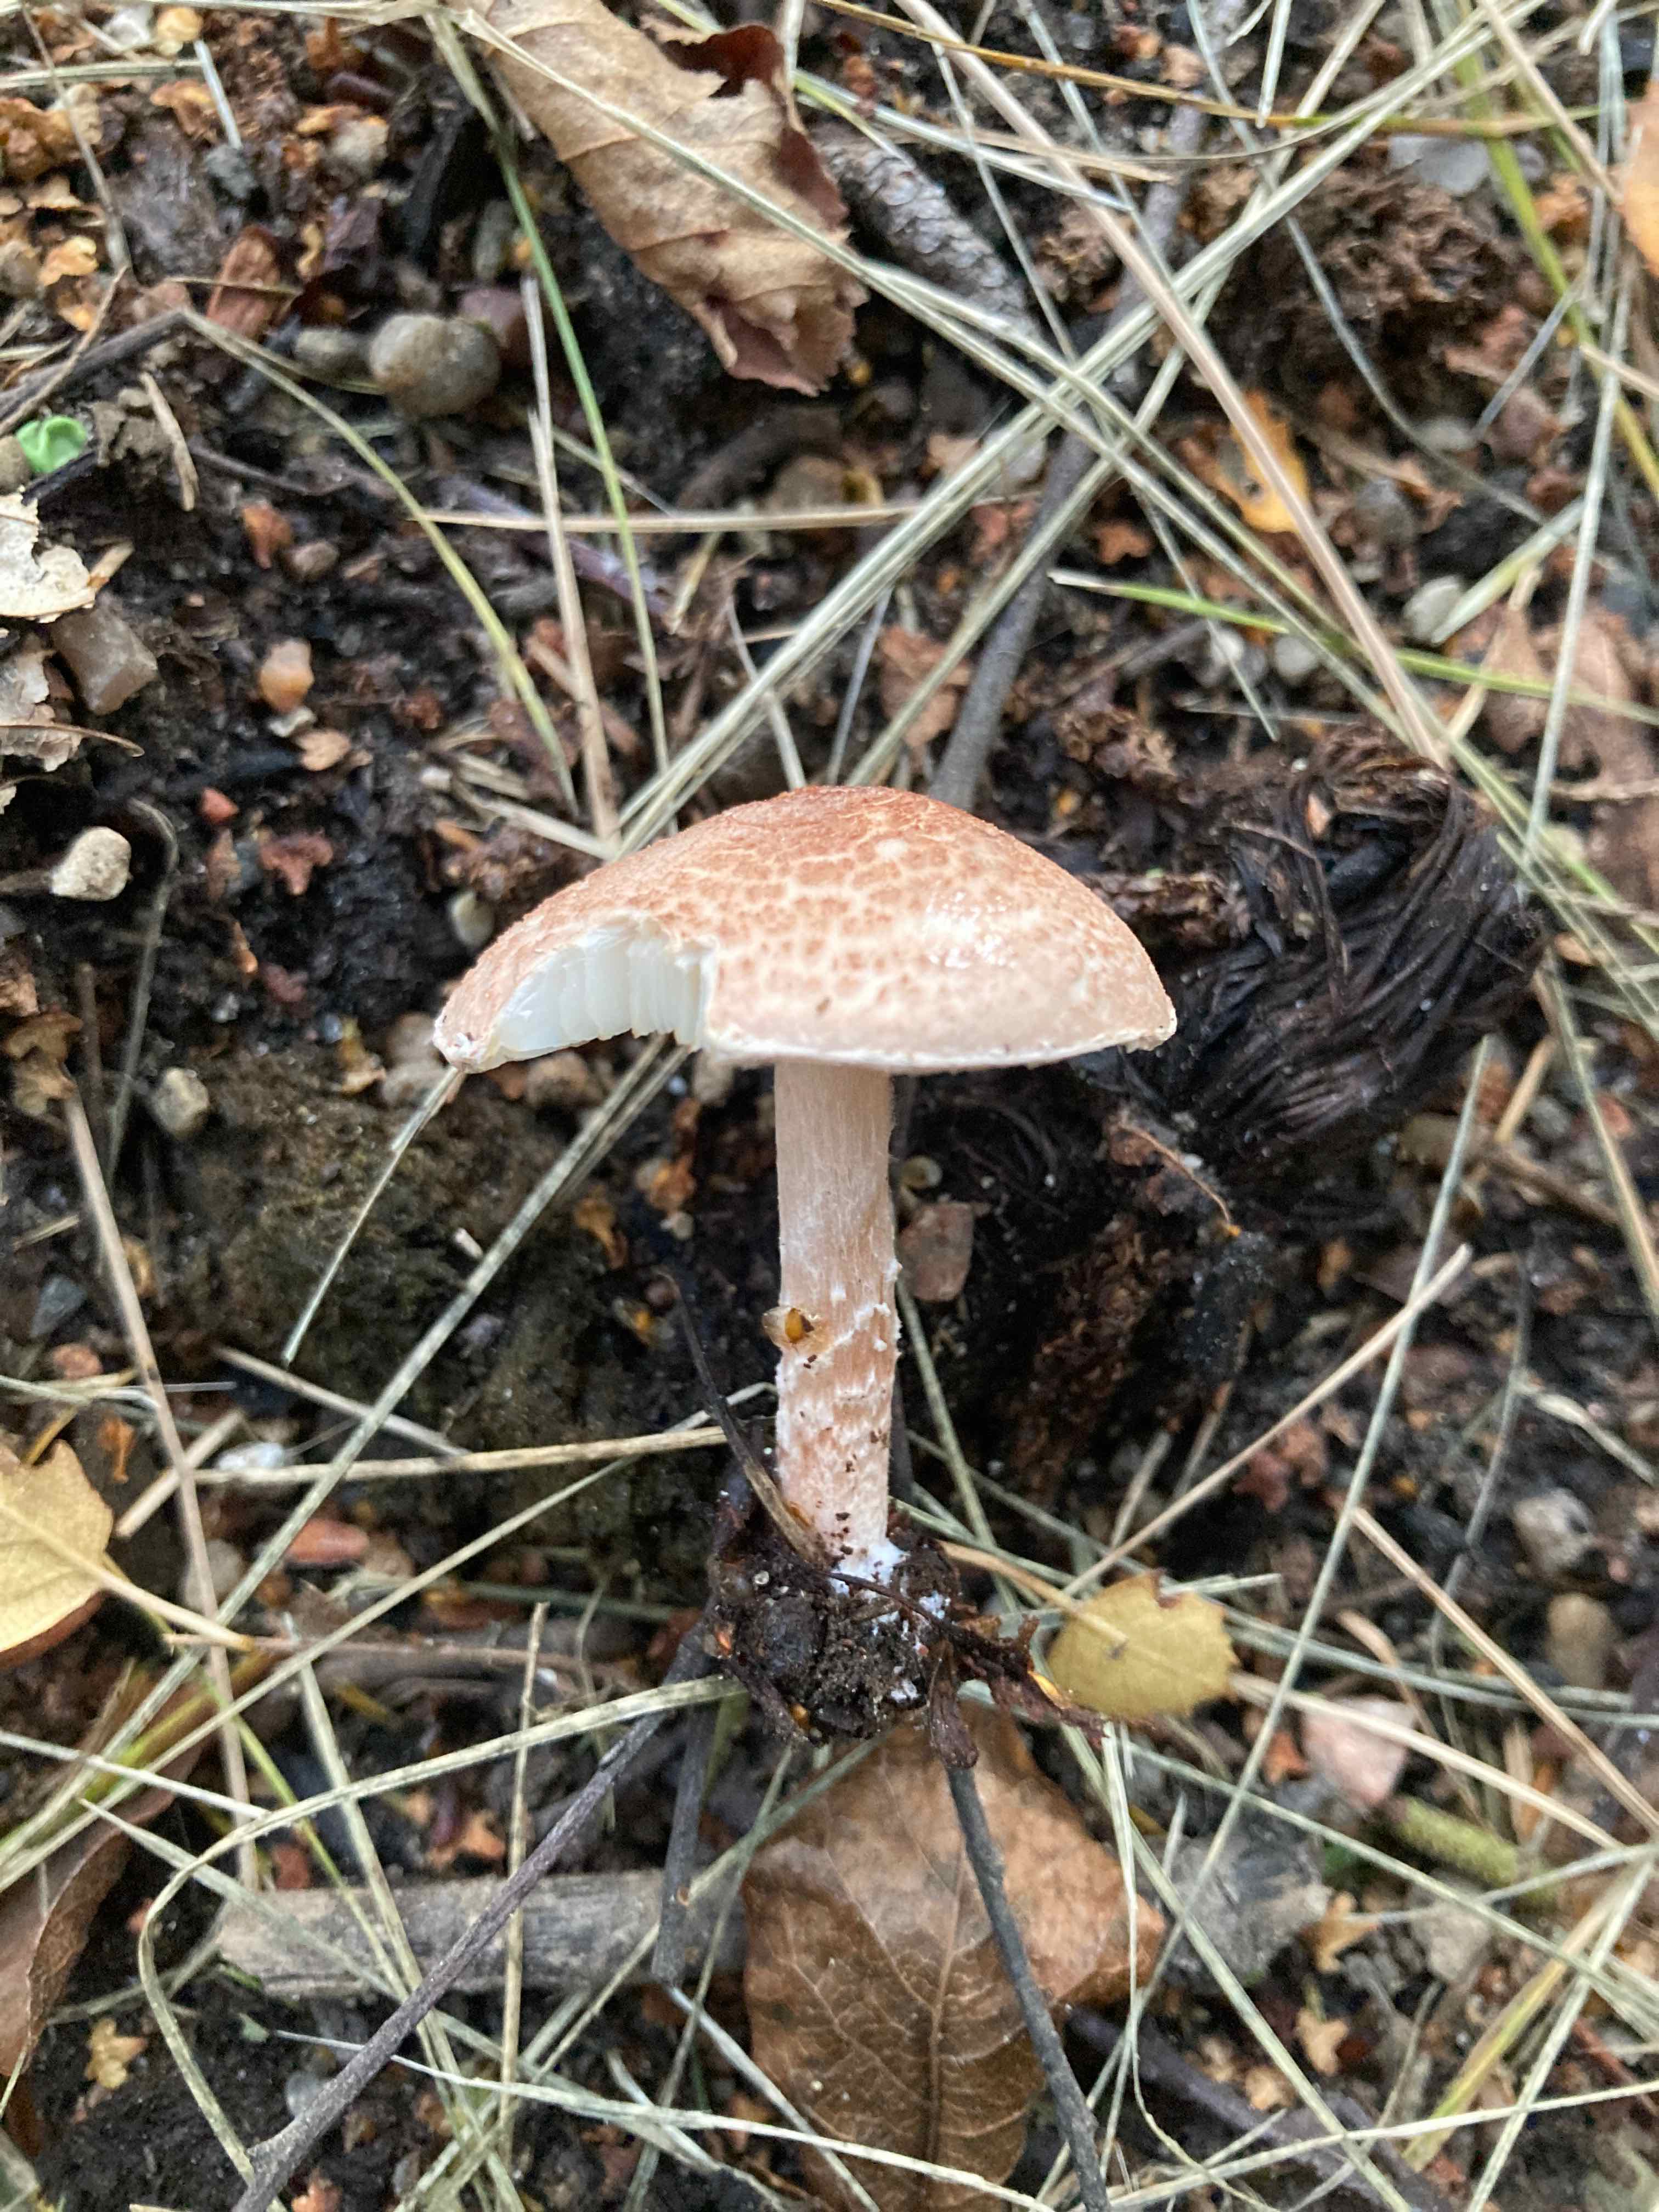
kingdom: Fungi
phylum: Basidiomycota
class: Agaricomycetes
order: Agaricales
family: Agaricaceae
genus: Lepiota
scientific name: Lepiota subincarnata
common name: kødfarvet parasolhat
